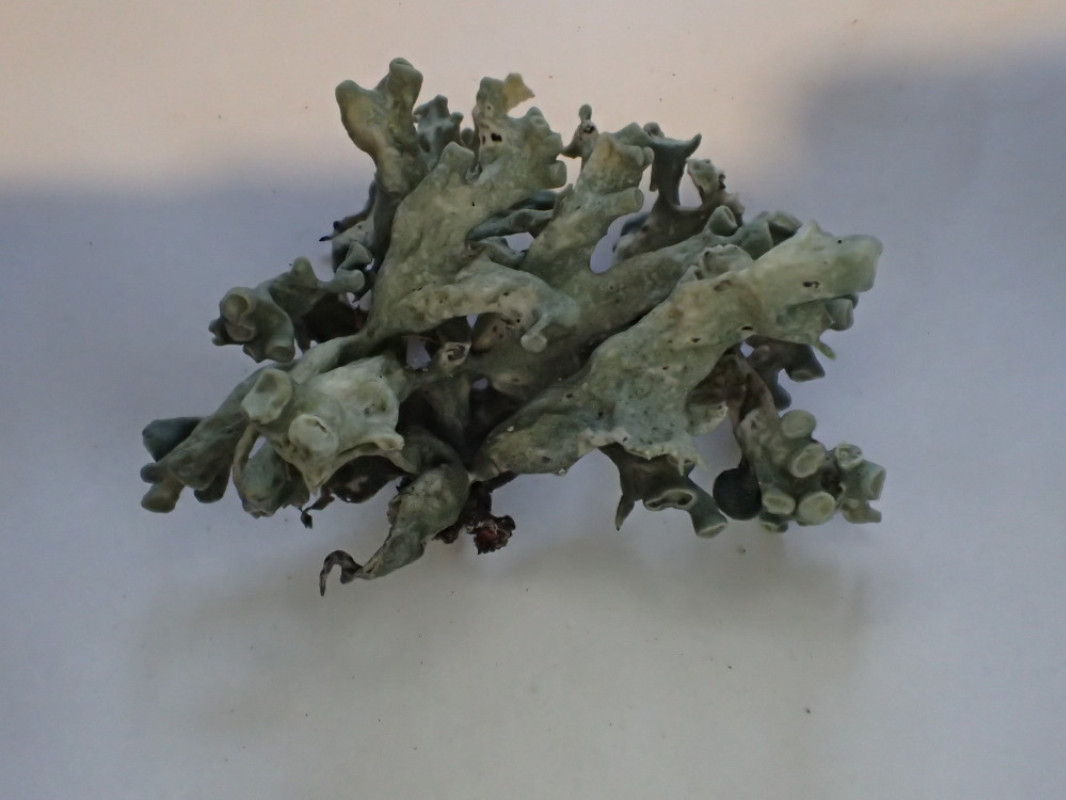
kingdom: Fungi
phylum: Ascomycota
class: Lecanoromycetes
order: Lecanorales
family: Ramalinaceae
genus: Ramalina
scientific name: Ramalina fastigiata
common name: tue-grenlav
